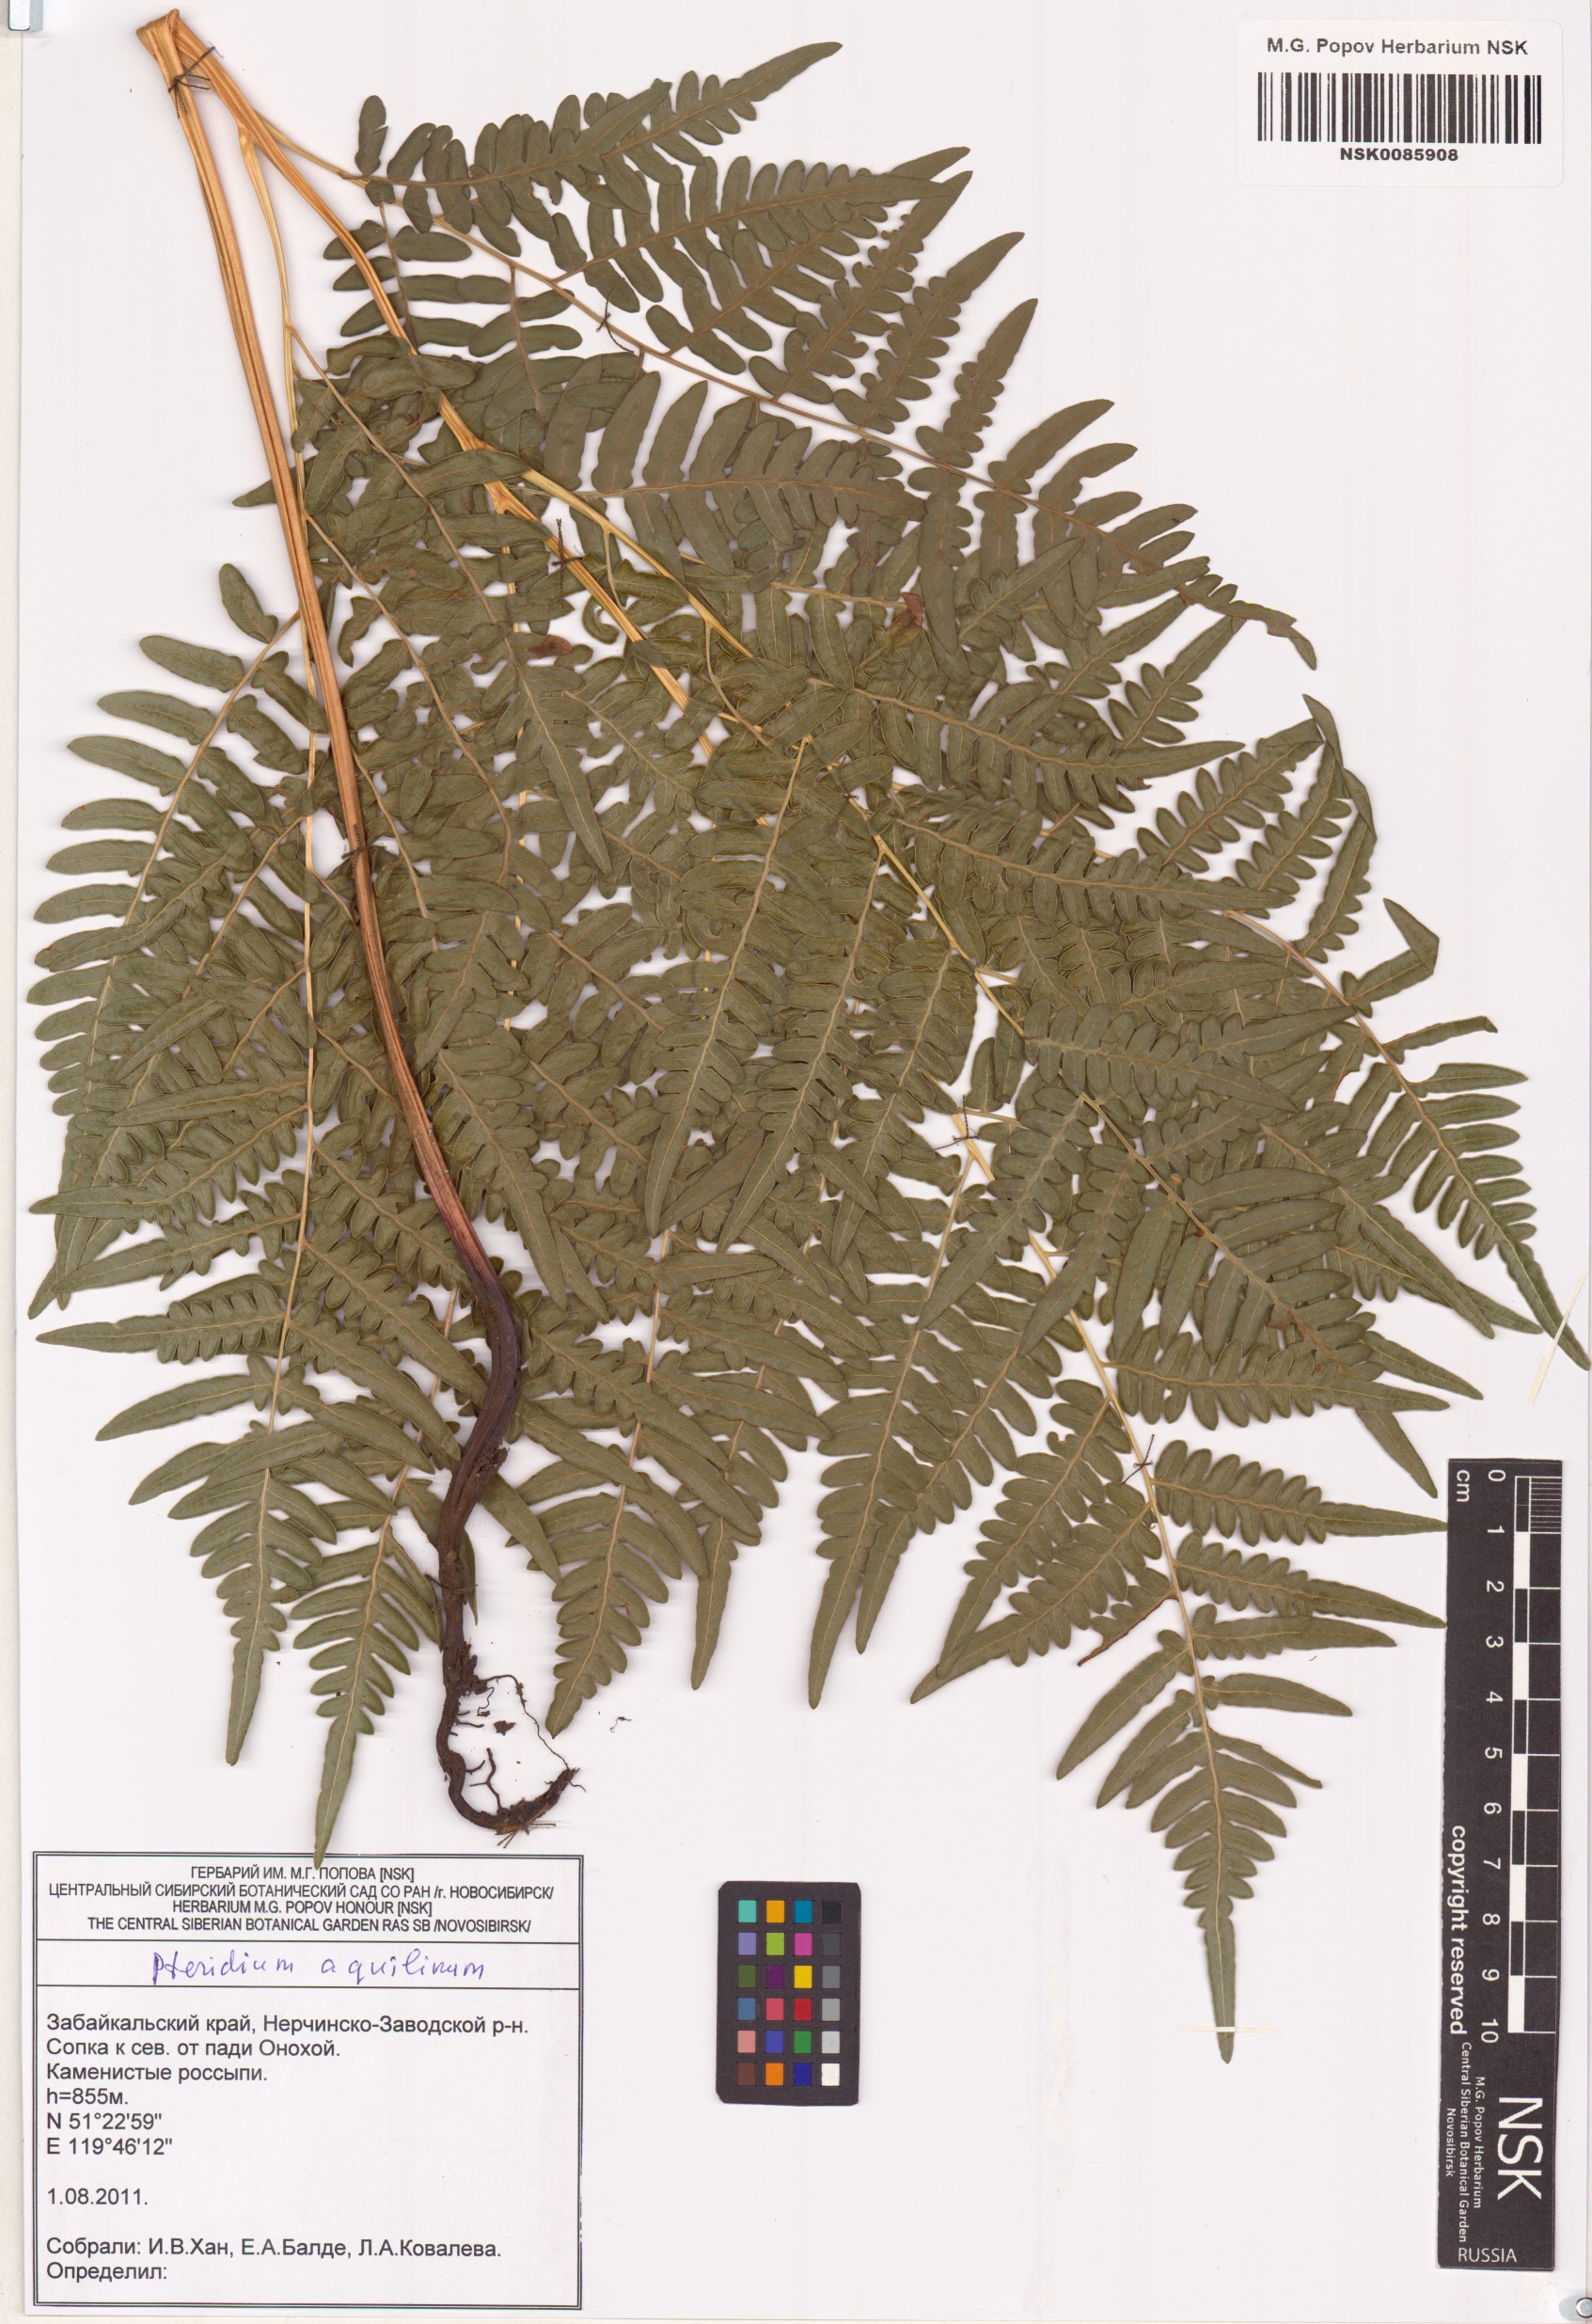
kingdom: Plantae
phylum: Tracheophyta
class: Polypodiopsida
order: Polypodiales
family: Dennstaedtiaceae
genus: Pteridium
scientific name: Pteridium aquilinum
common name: Bracken
